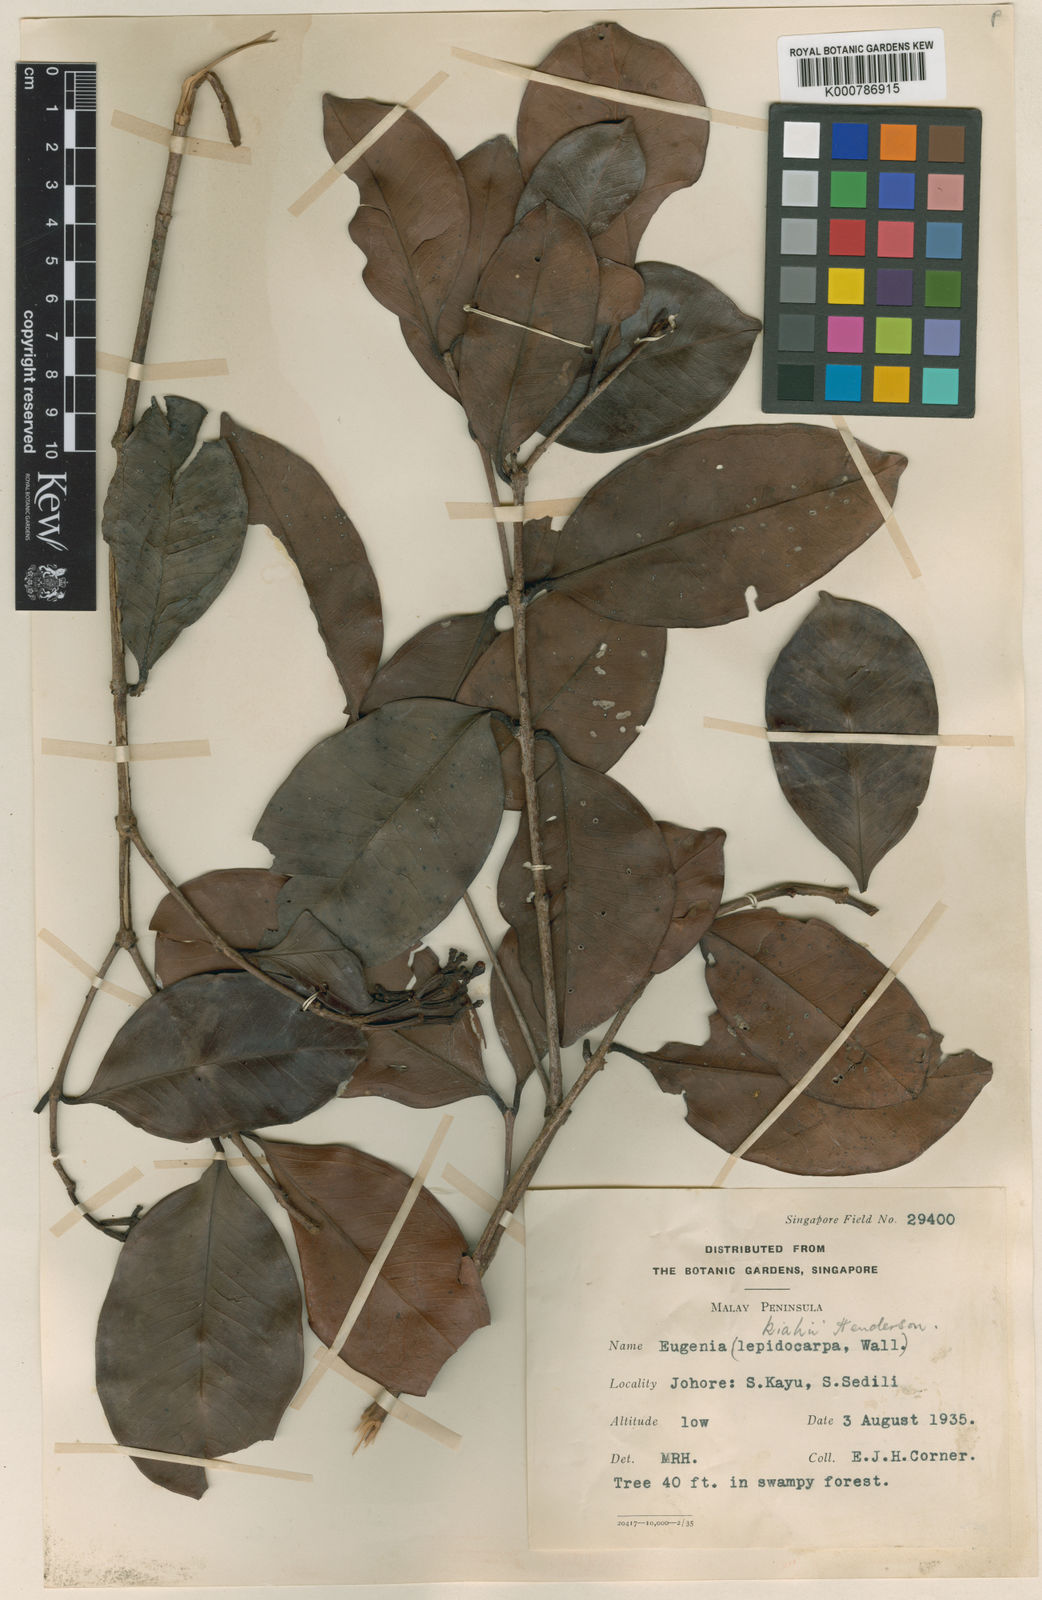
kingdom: Plantae
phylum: Tracheophyta
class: Magnoliopsida
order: Myrtales
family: Myrtaceae
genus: Syzygium
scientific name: Syzygium kiahii
